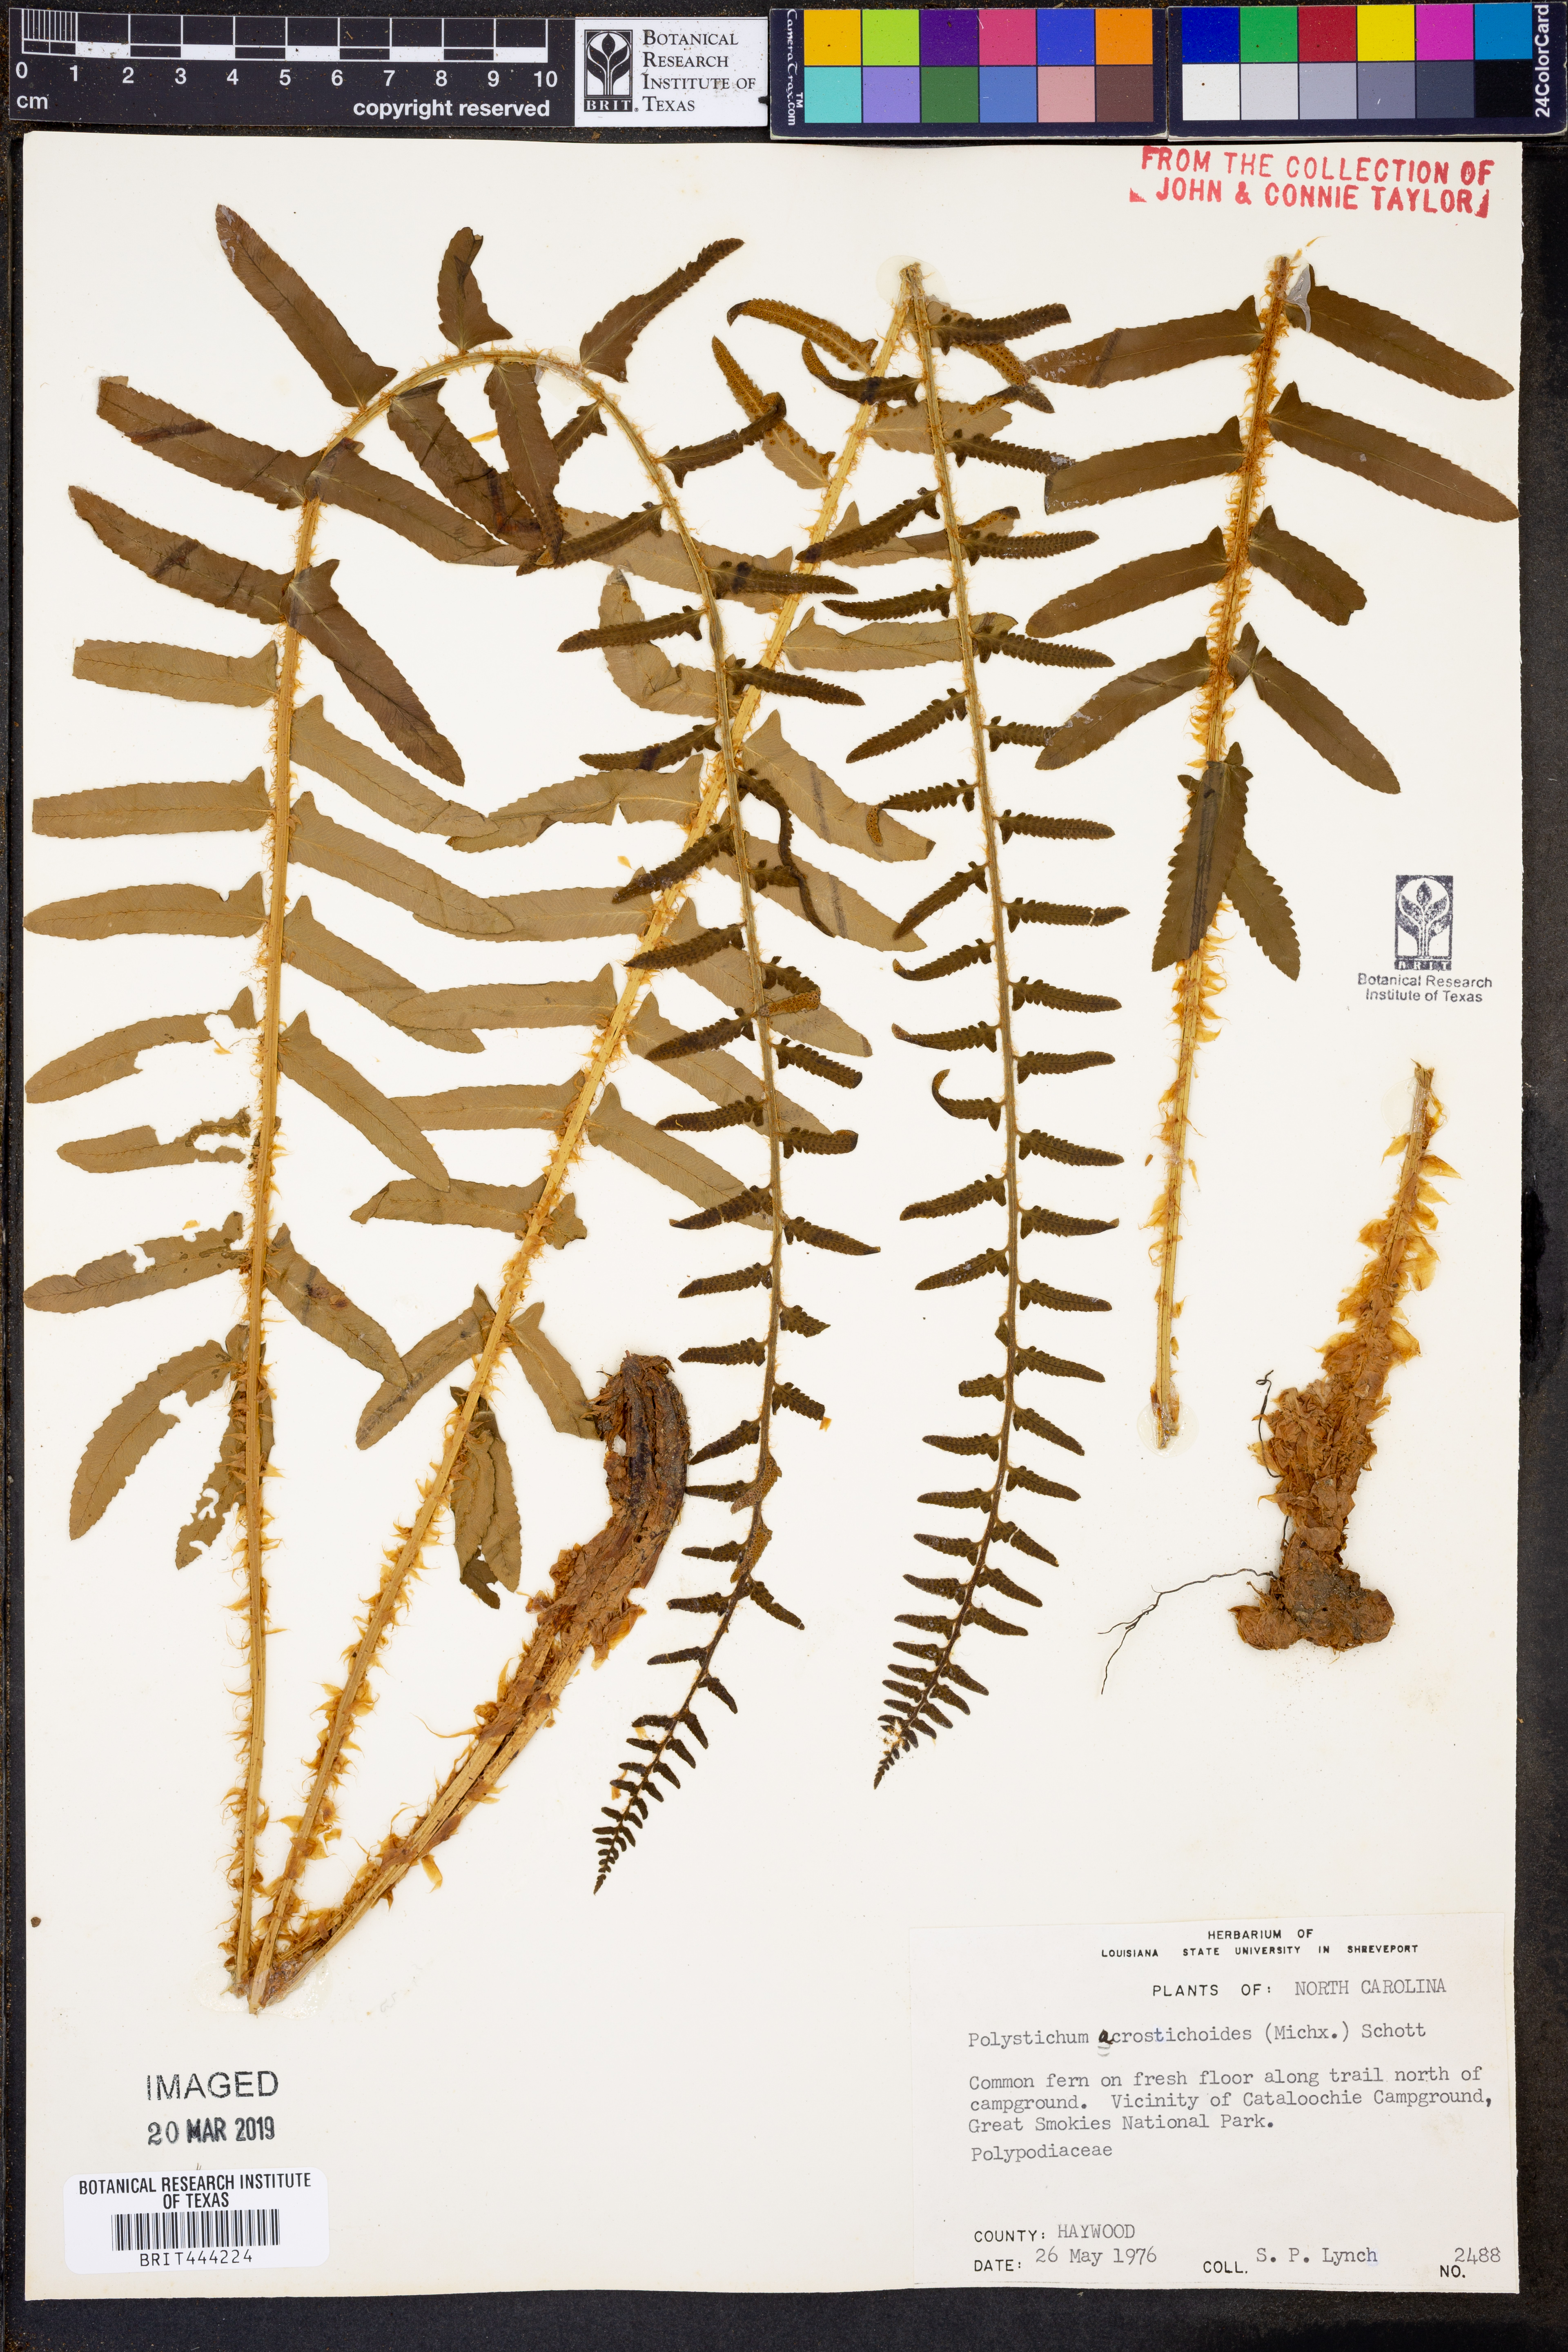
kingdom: Plantae
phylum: Tracheophyta
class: Polypodiopsida
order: Polypodiales
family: Dryopteridaceae
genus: Polystichum
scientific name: Polystichum acrostichoides
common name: Christmas fern
